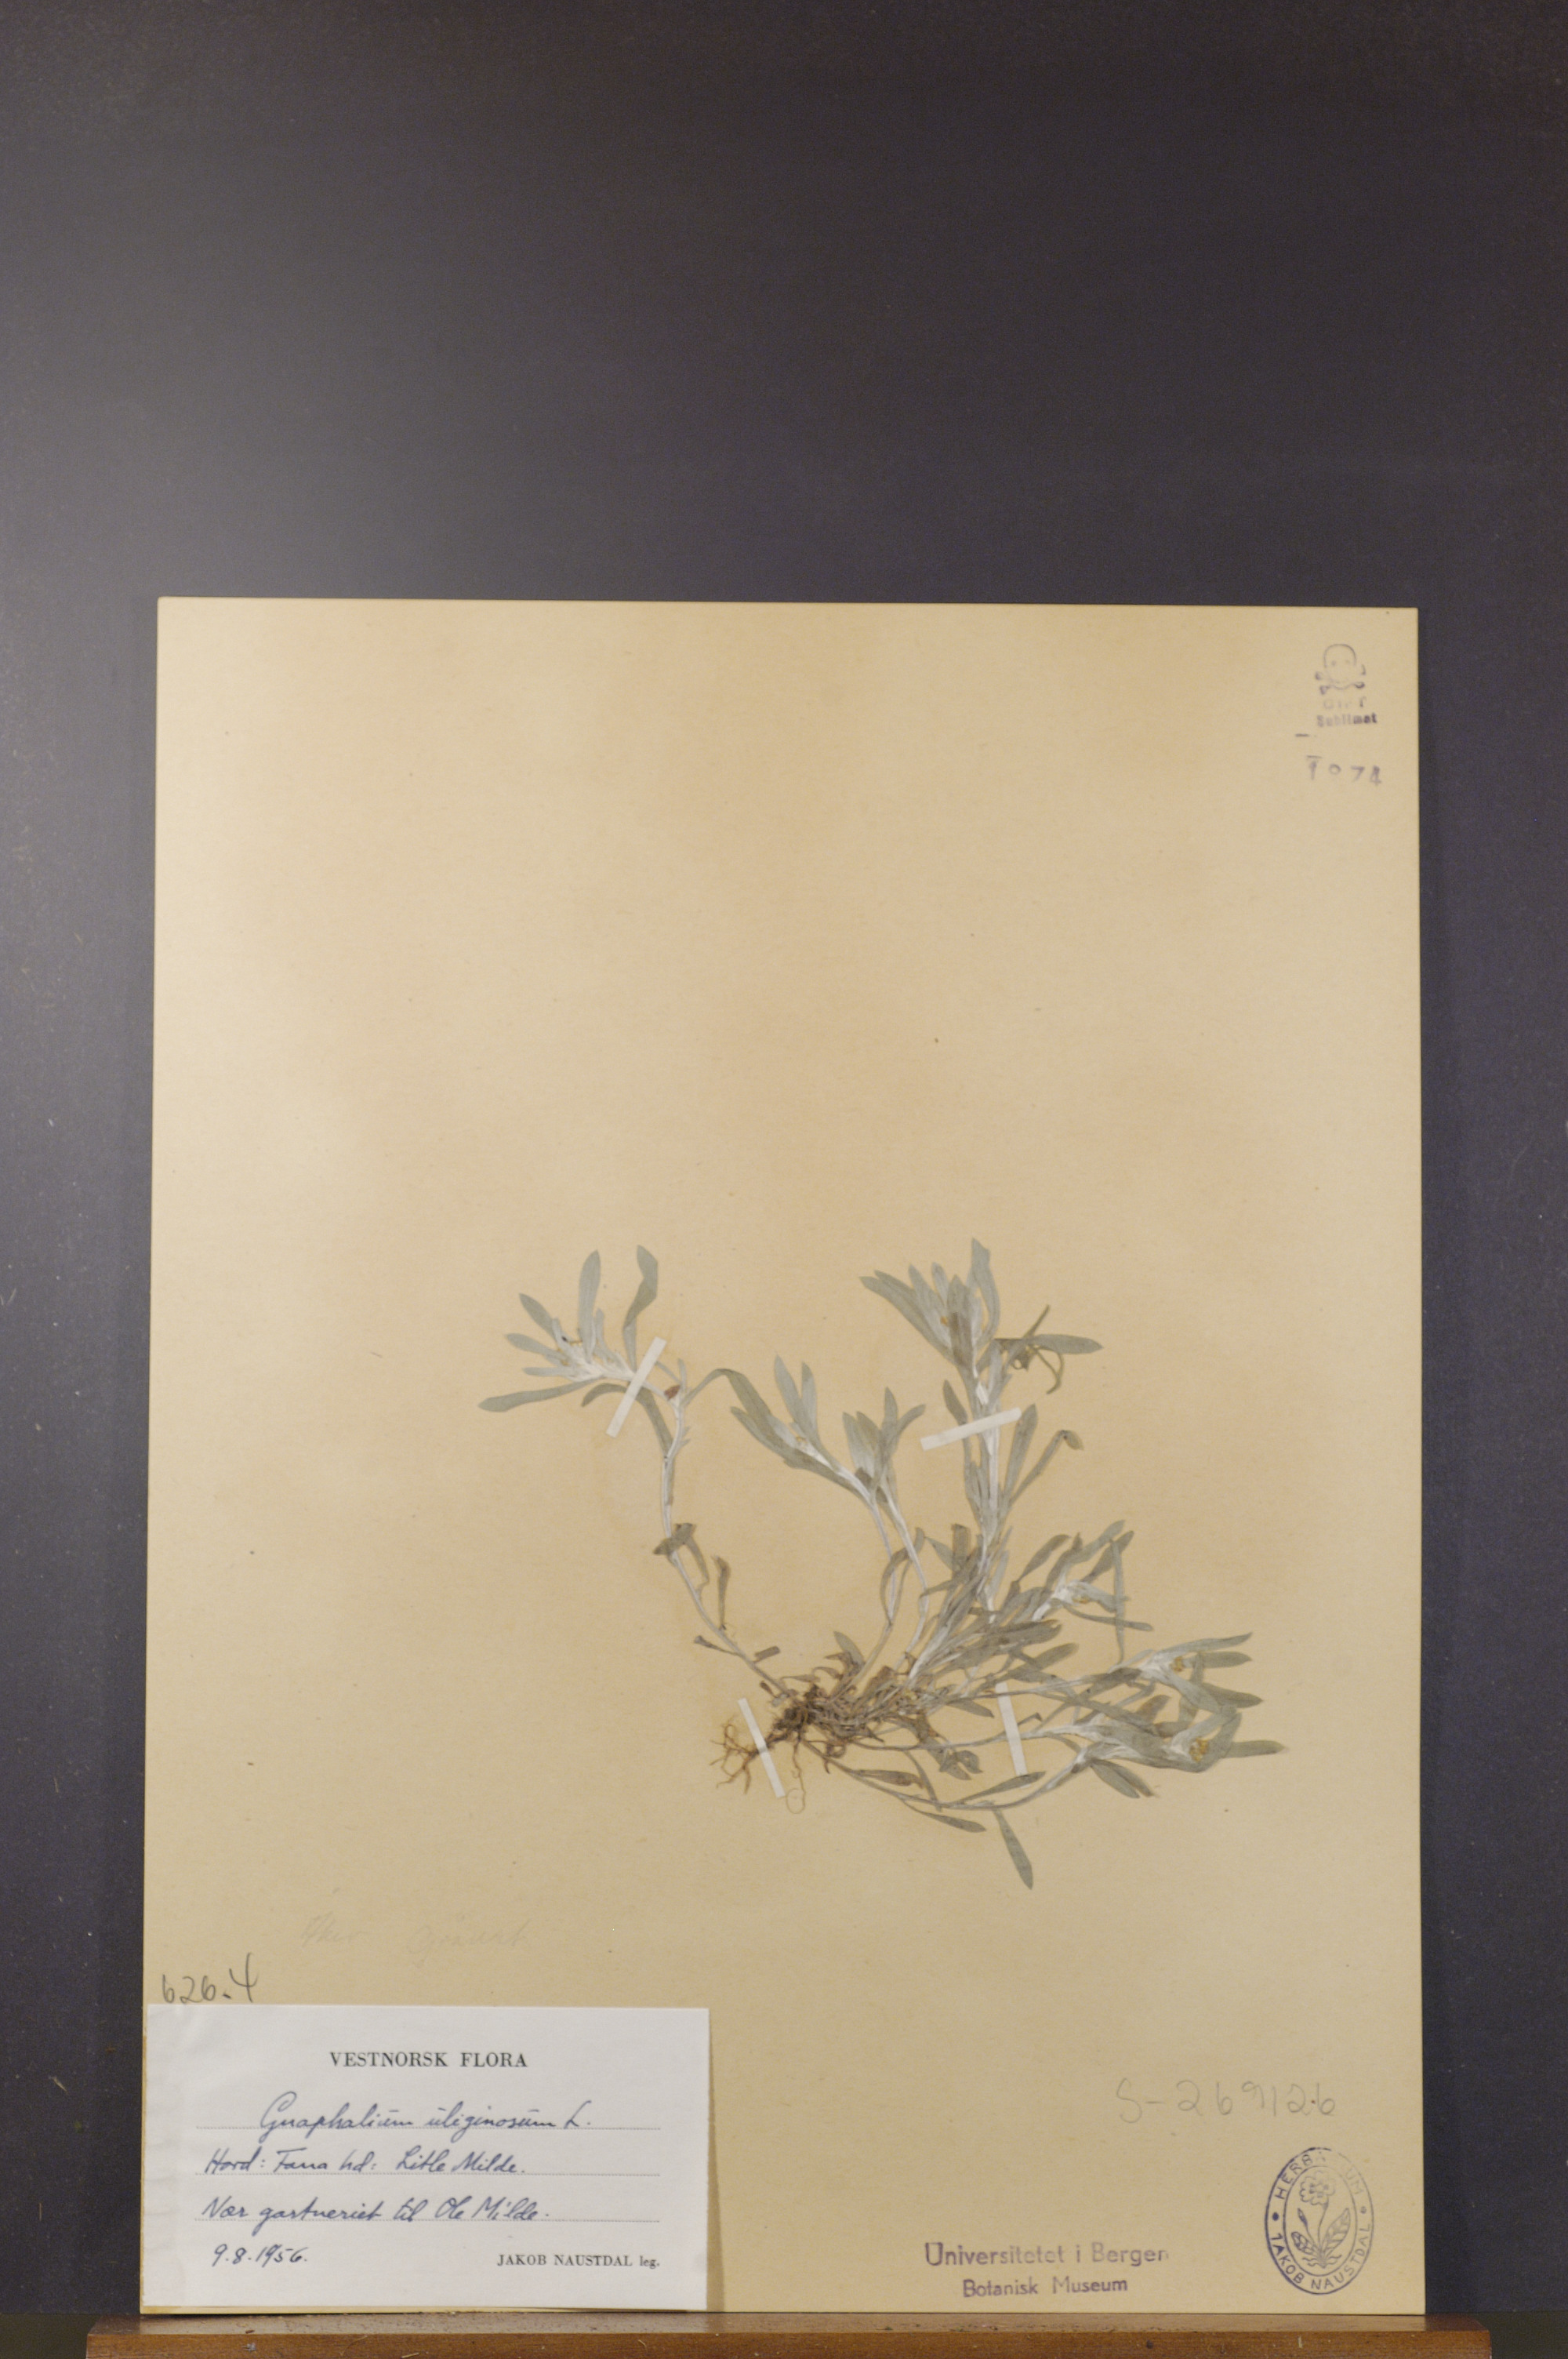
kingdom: Plantae
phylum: Tracheophyta
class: Magnoliopsida
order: Asterales
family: Asteraceae
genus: Gnaphalium
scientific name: Gnaphalium uliginosum
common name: Marsh cudweed
